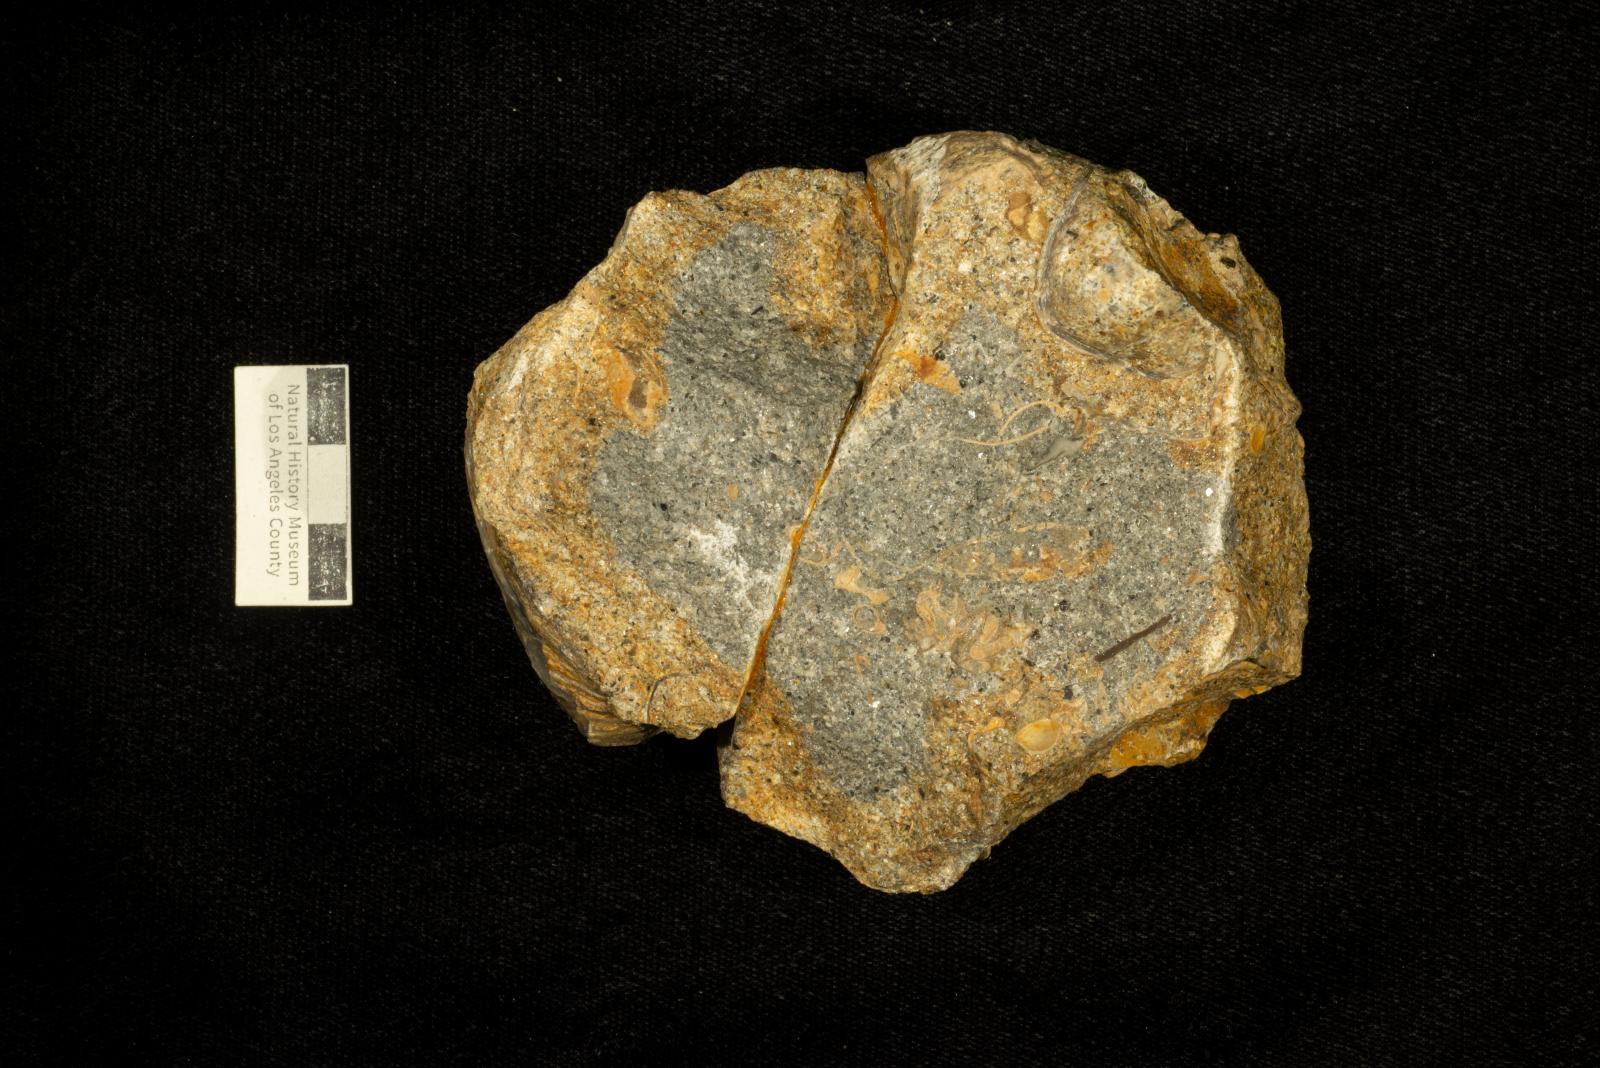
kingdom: Animalia
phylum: Mollusca
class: Bivalvia
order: Ostreida
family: Gryphaeidae
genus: Costagyra
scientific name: Costagyra
